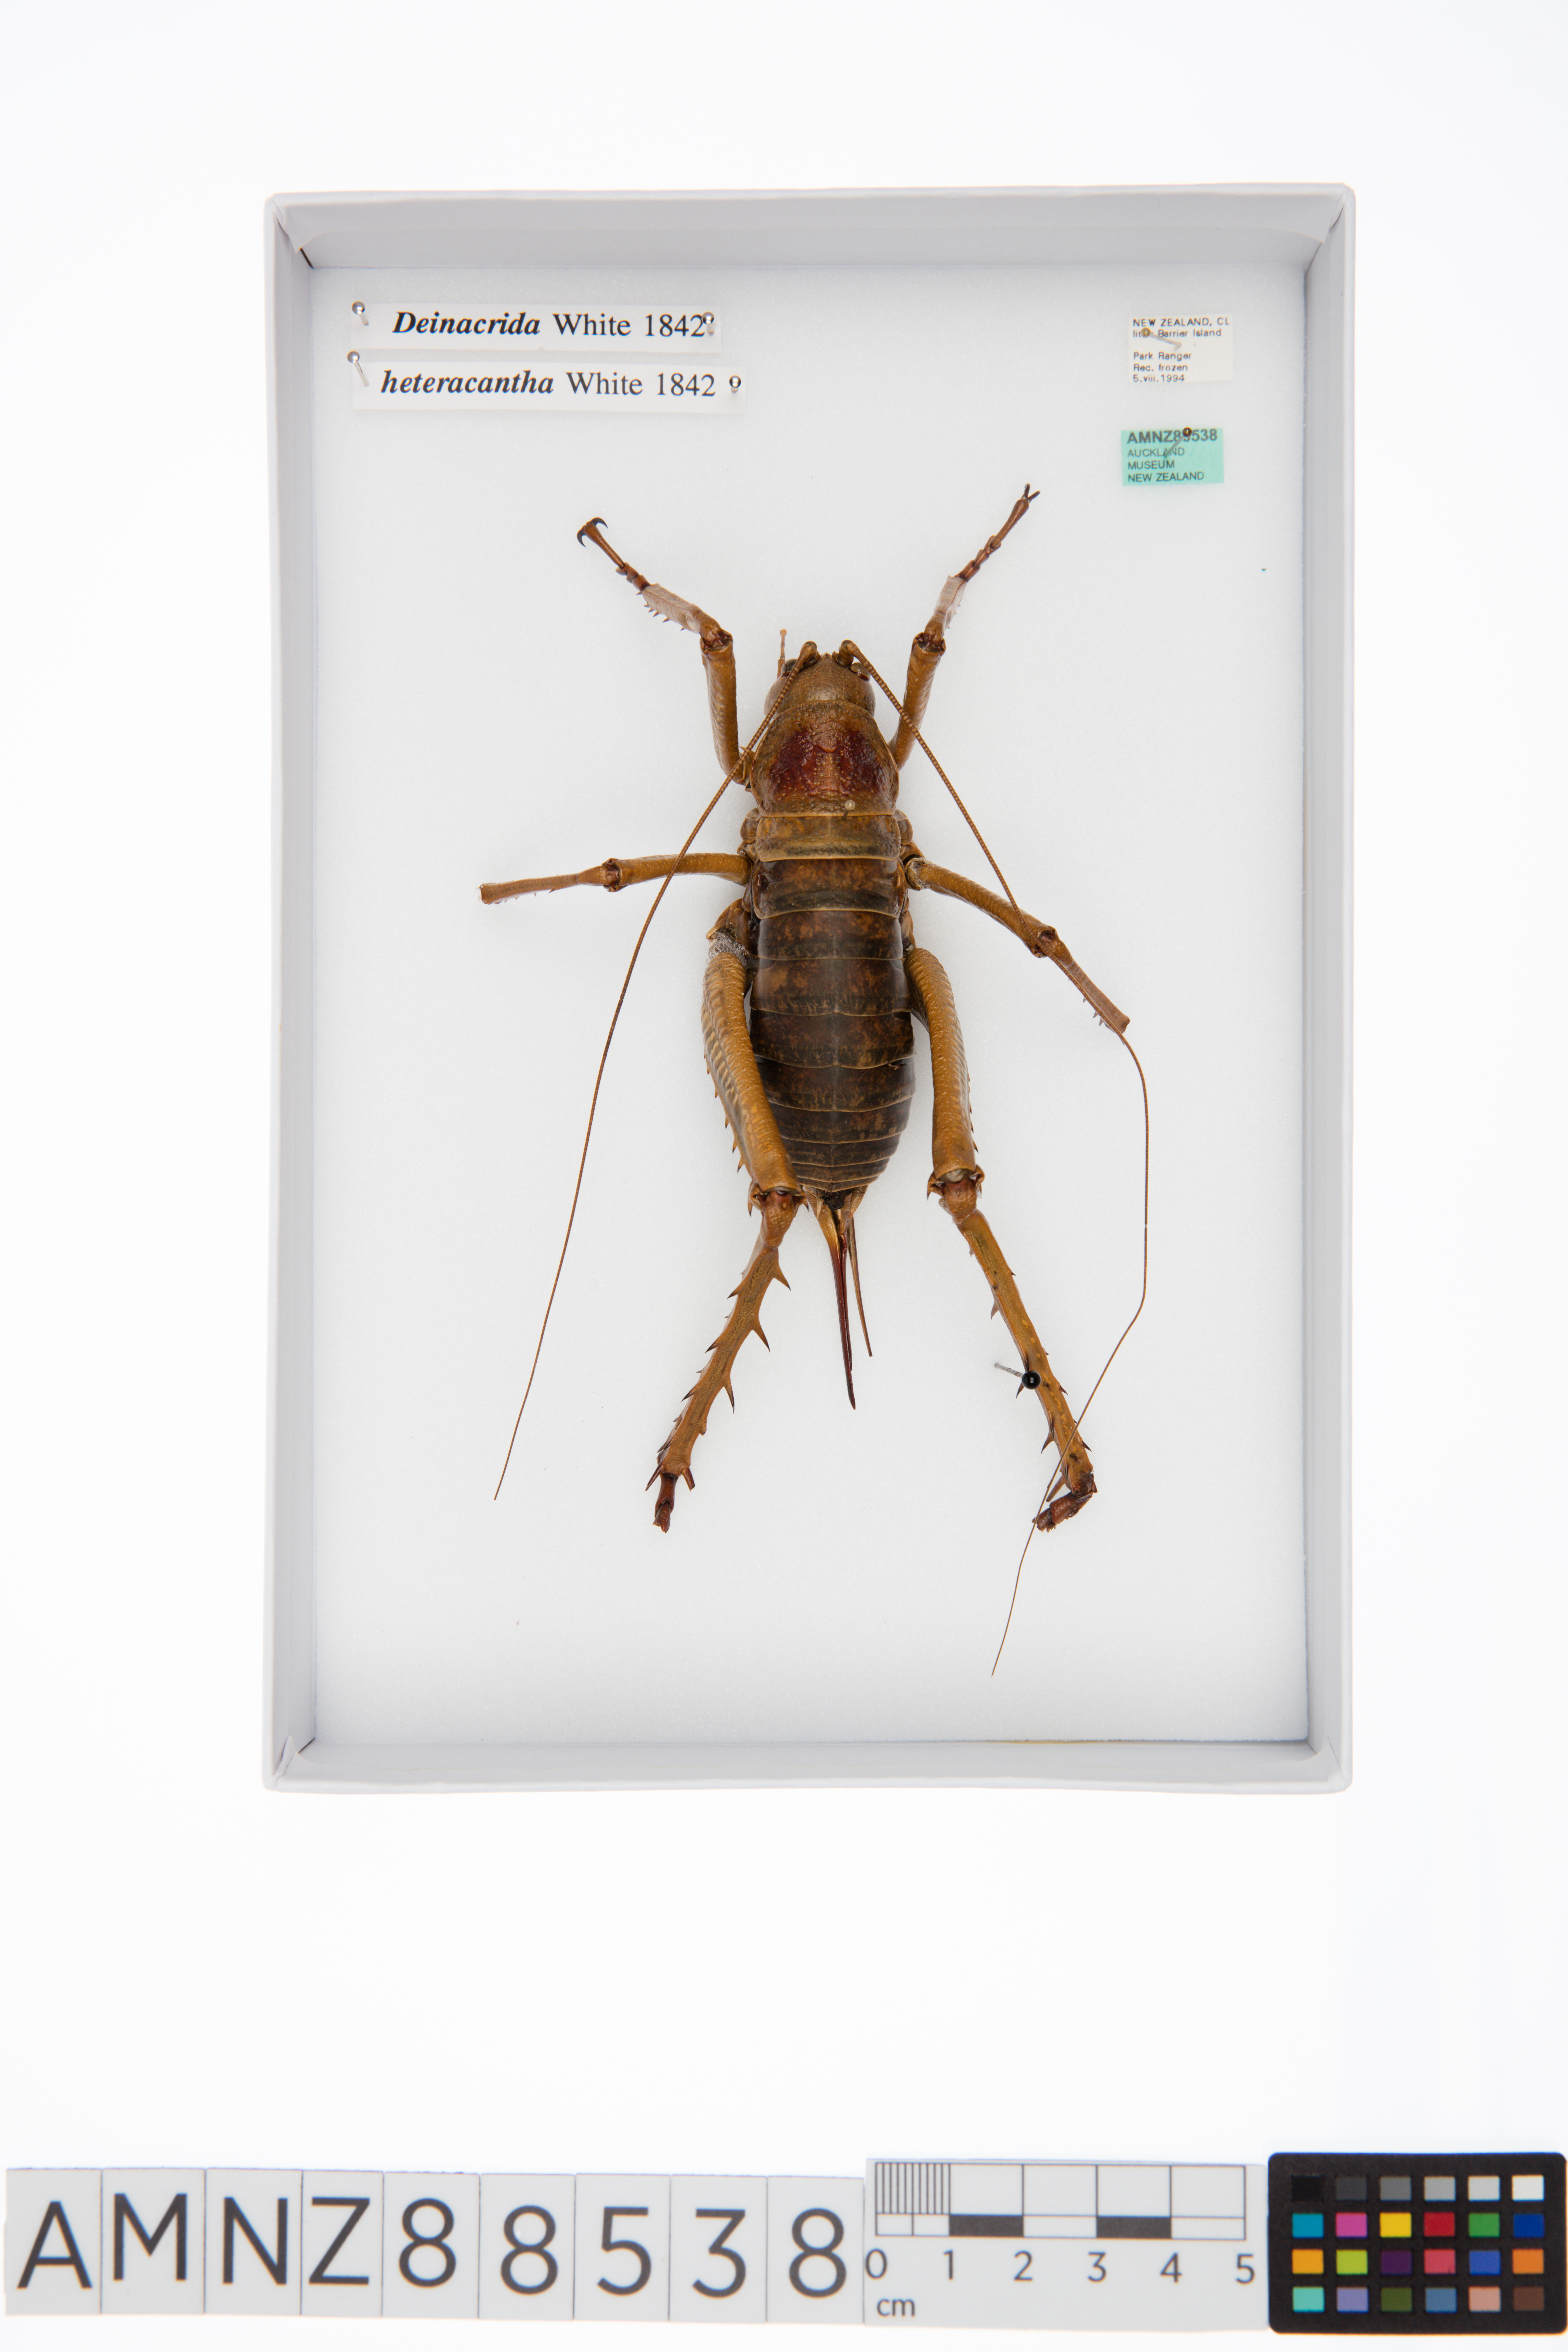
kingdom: Animalia
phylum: Arthropoda
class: Insecta
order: Orthoptera
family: Anostostomatidae
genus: Deinacrida
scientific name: Deinacrida heteracantha
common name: Wetapunga
